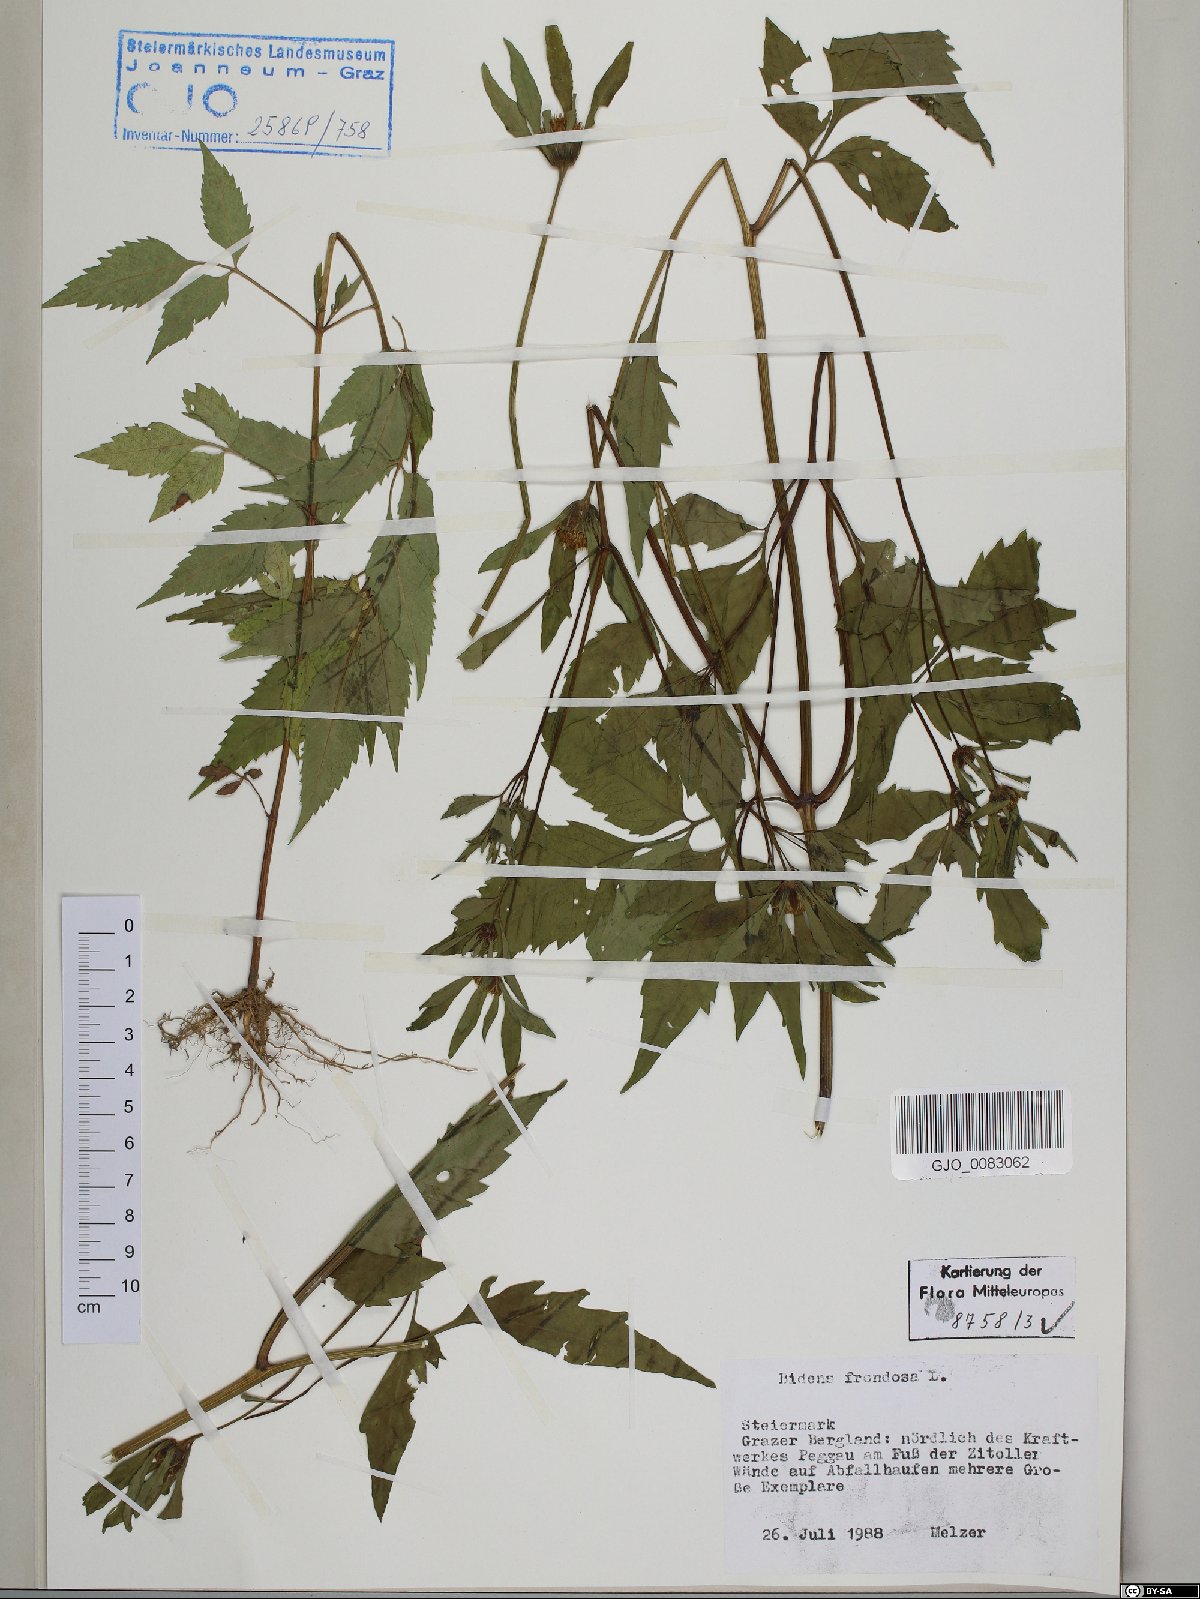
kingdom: Plantae
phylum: Tracheophyta
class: Magnoliopsida
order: Asterales
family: Asteraceae
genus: Bidens
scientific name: Bidens frondosa
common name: Beggarticks
